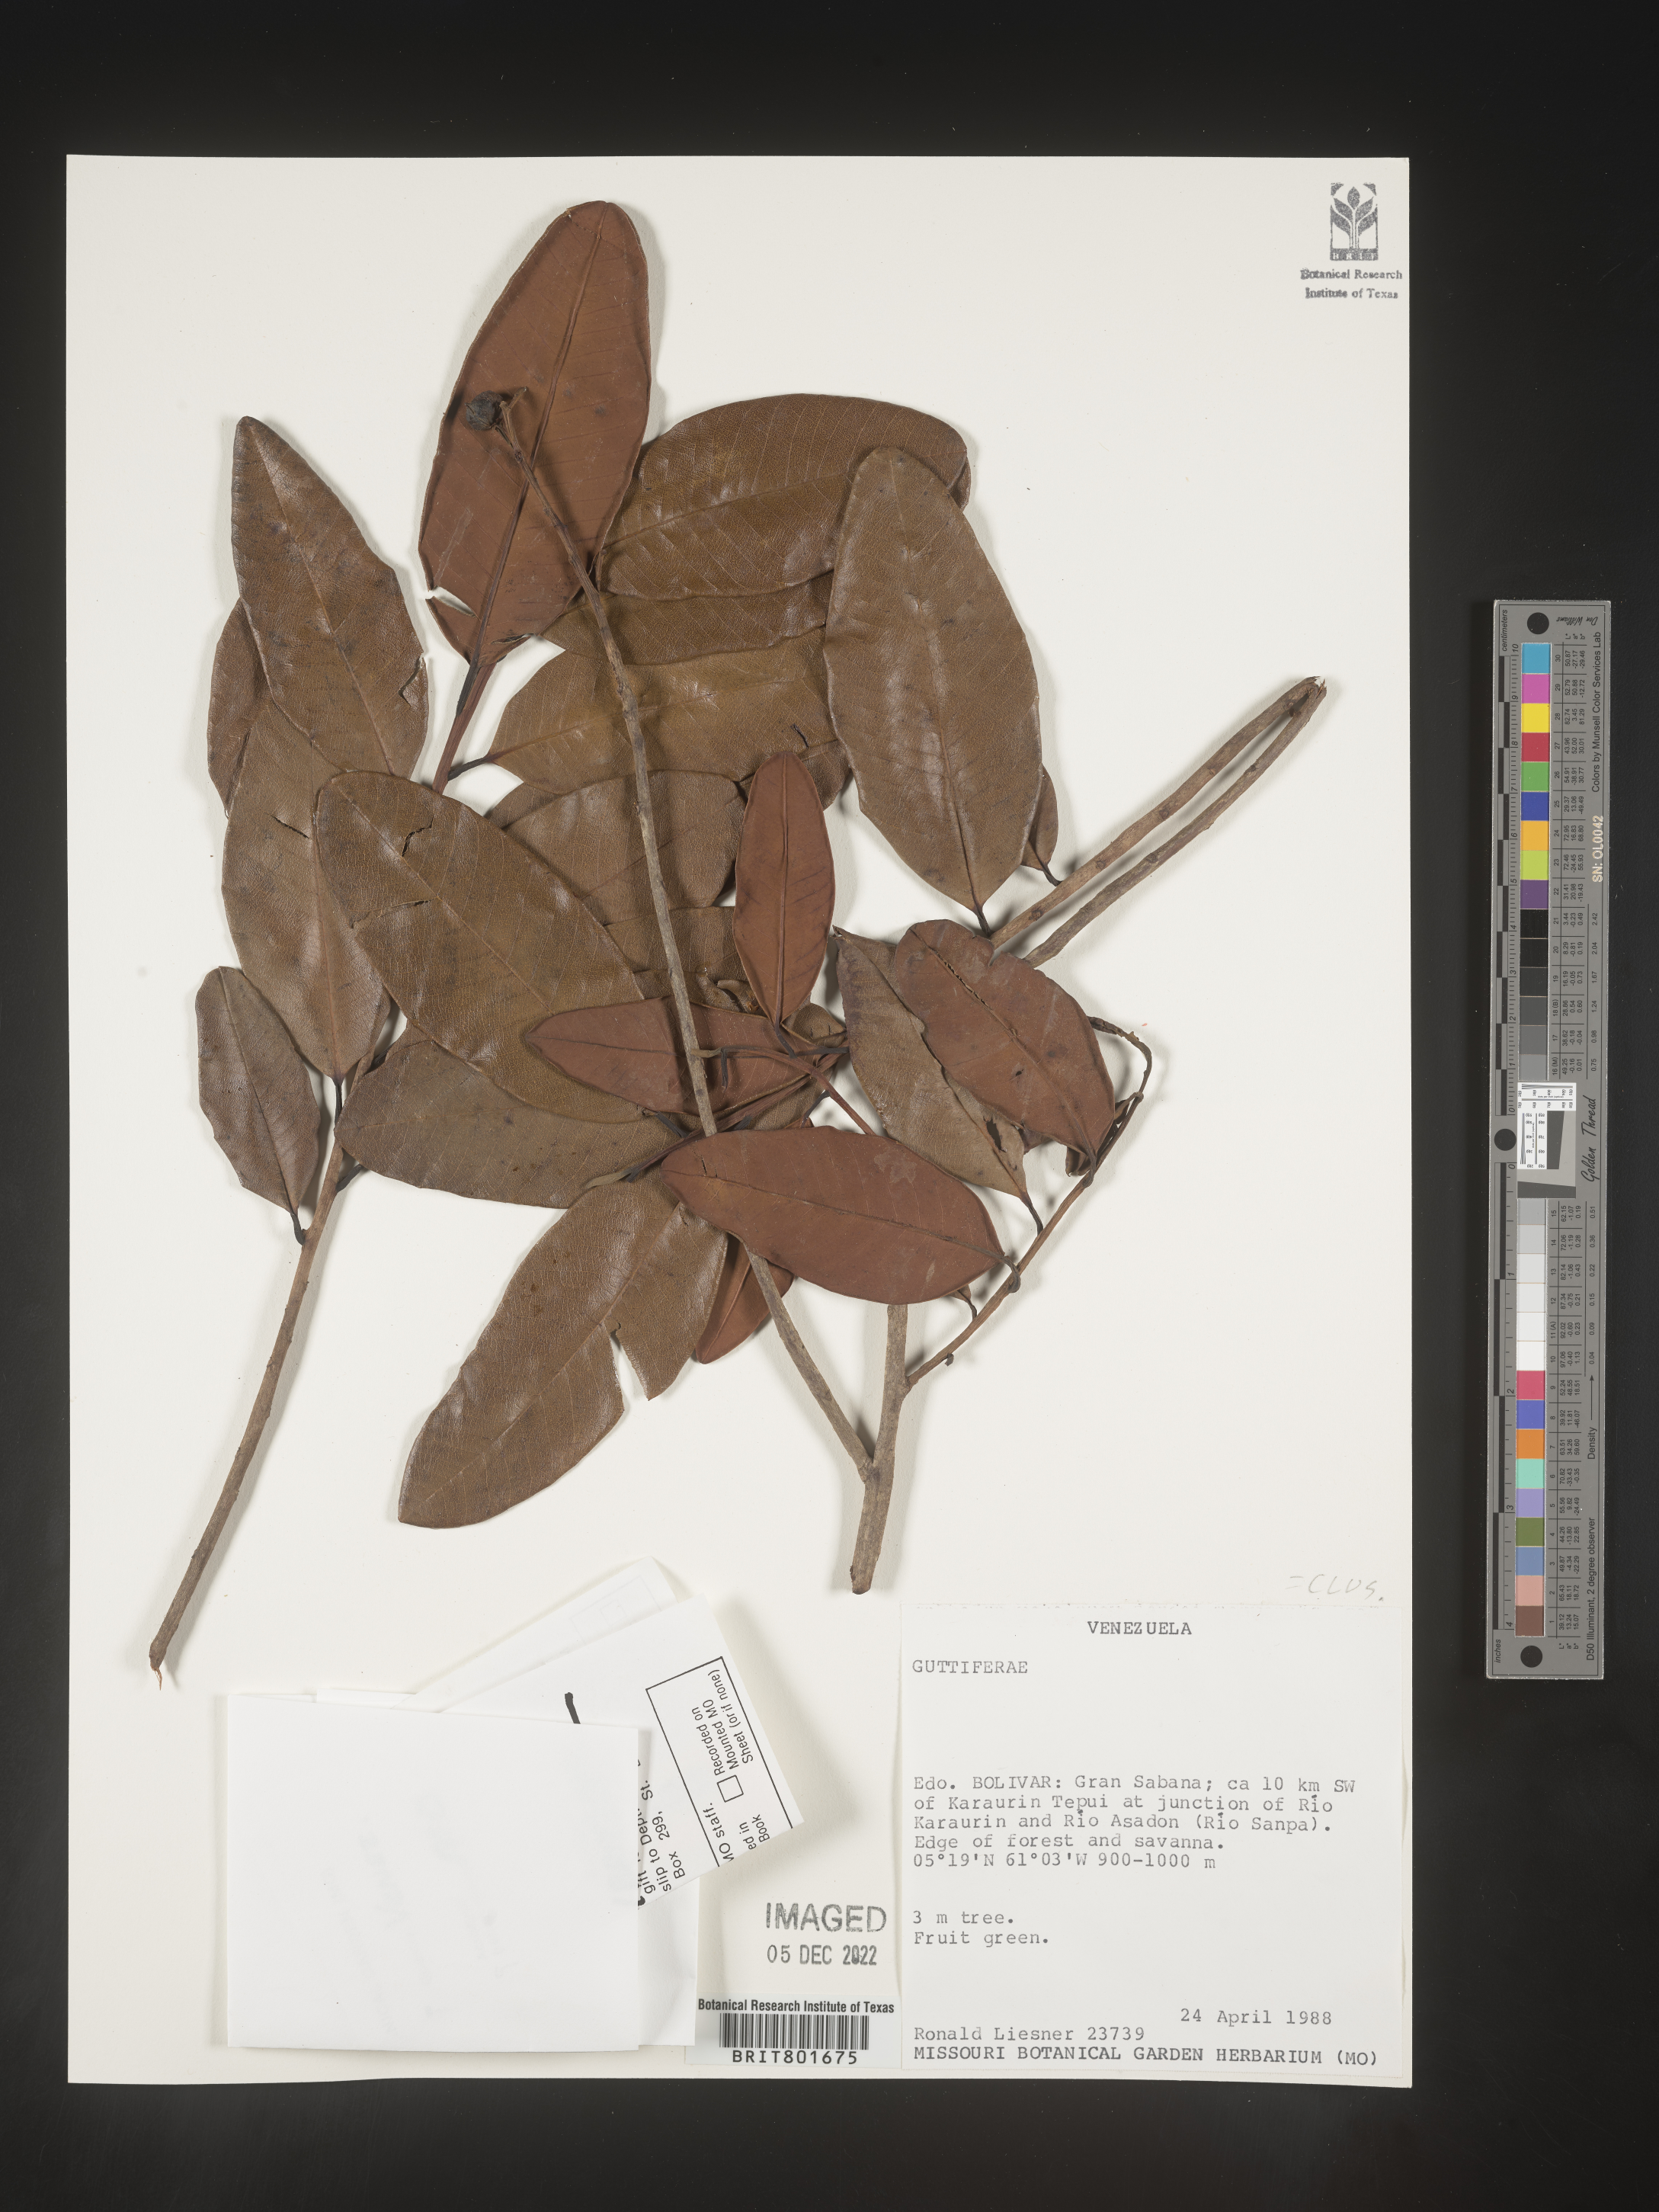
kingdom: Plantae
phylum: Tracheophyta
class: Magnoliopsida
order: Malpighiales
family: Clusiaceae
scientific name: Clusiaceae
